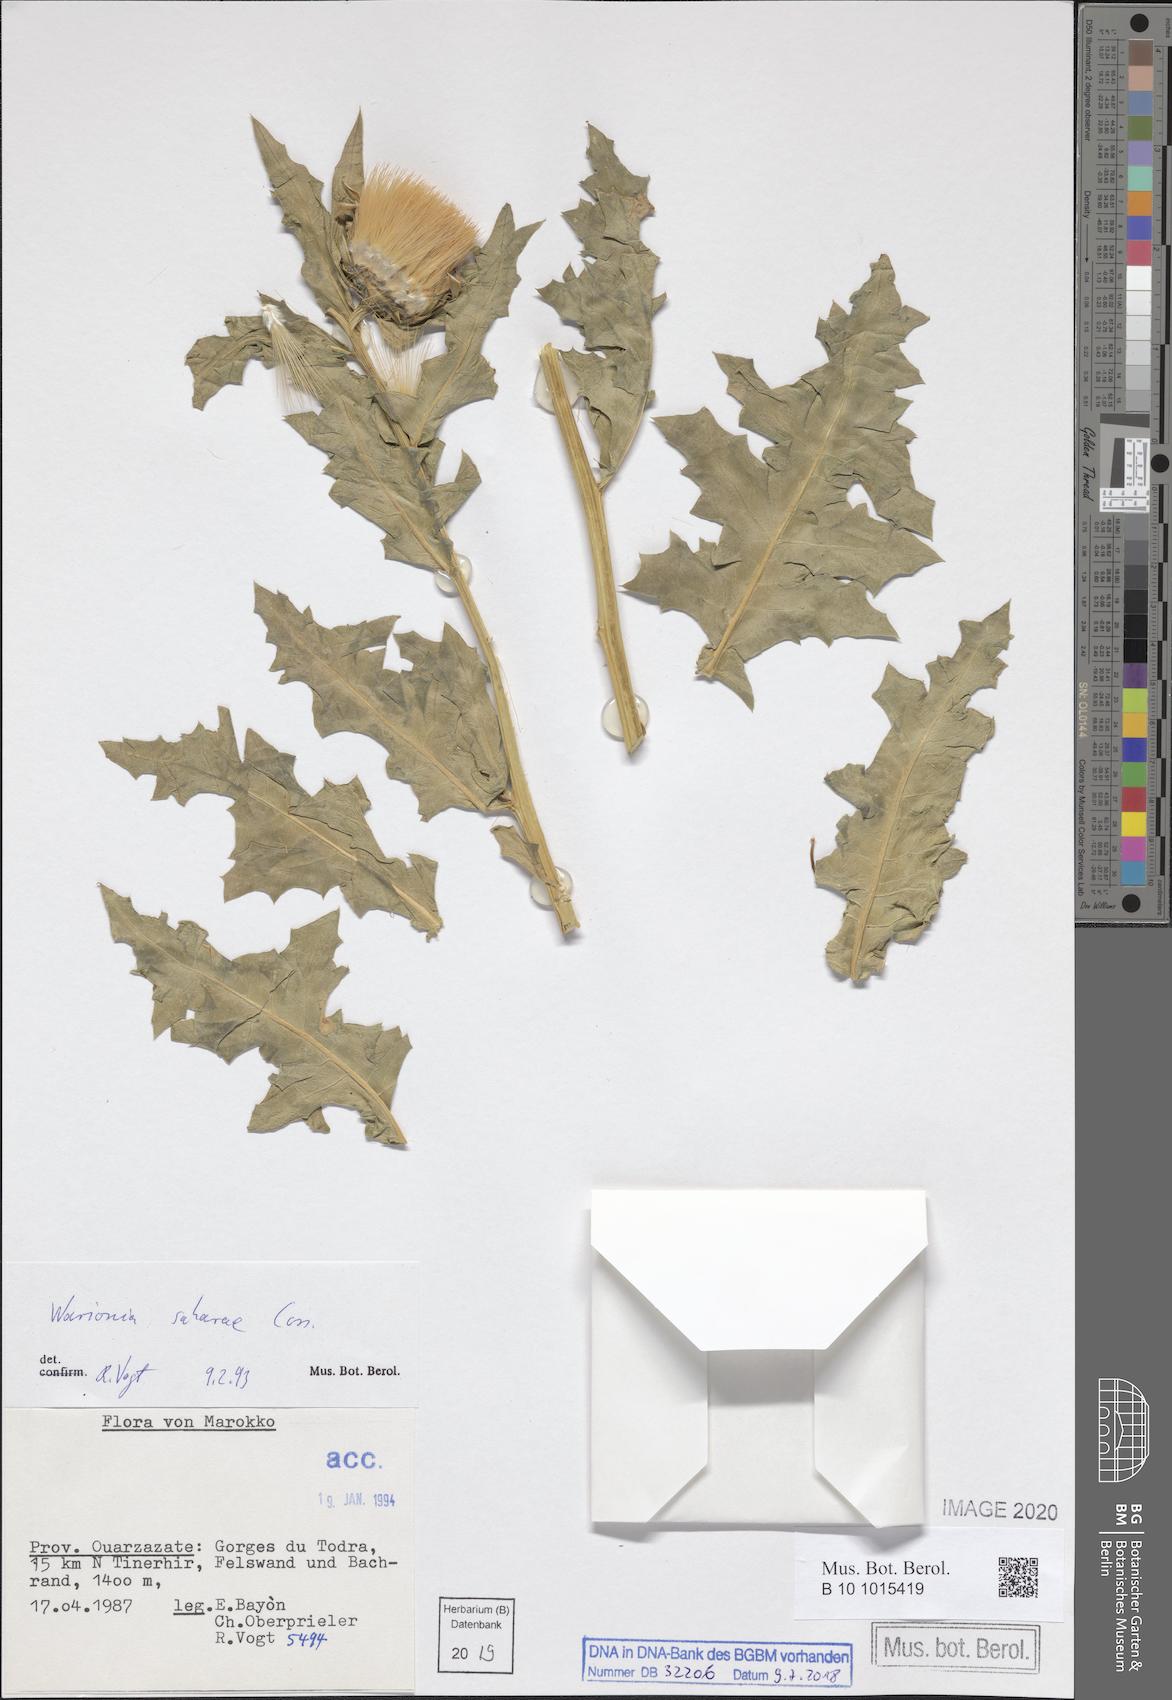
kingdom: Plantae
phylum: Tracheophyta
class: Magnoliopsida
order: Asterales
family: Asteraceae
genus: Warionia
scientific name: Warionia saharae
